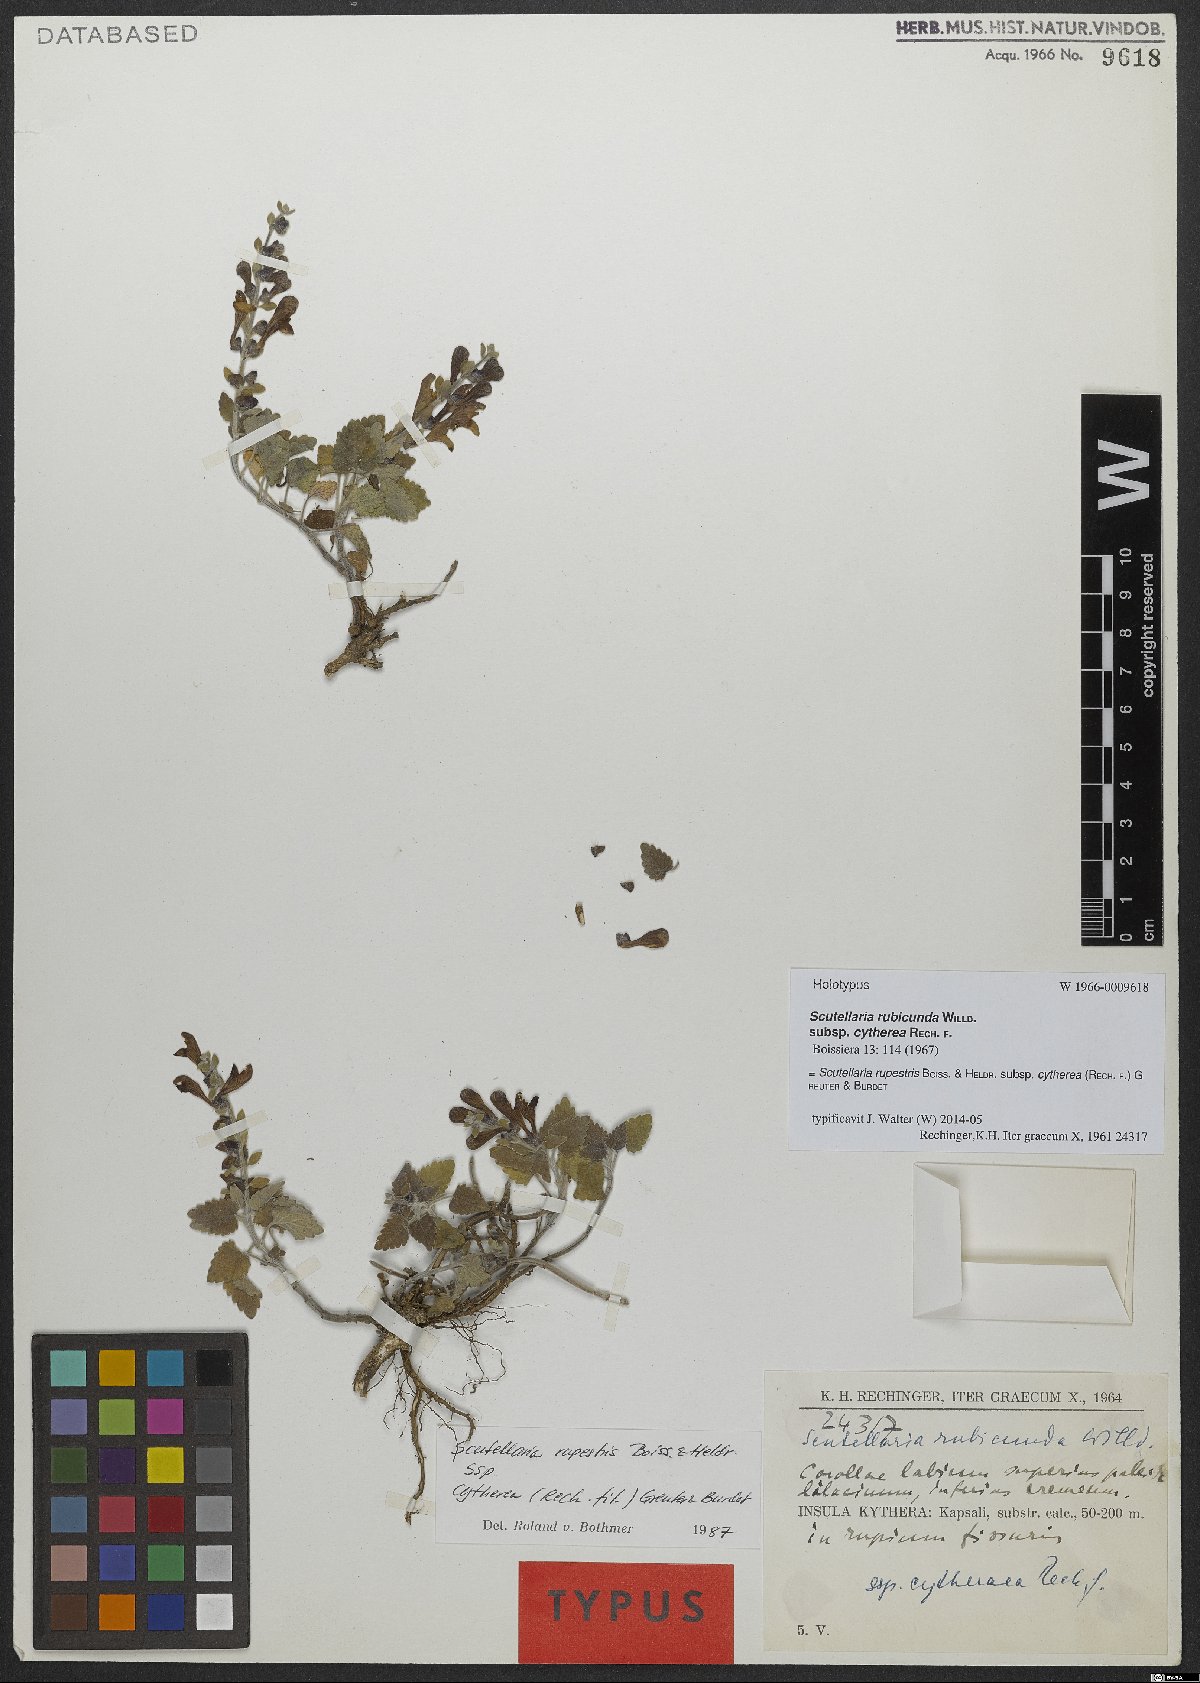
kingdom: Plantae
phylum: Tracheophyta
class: Magnoliopsida
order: Lamiales
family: Lamiaceae
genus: Scutellaria
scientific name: Scutellaria rupestris
